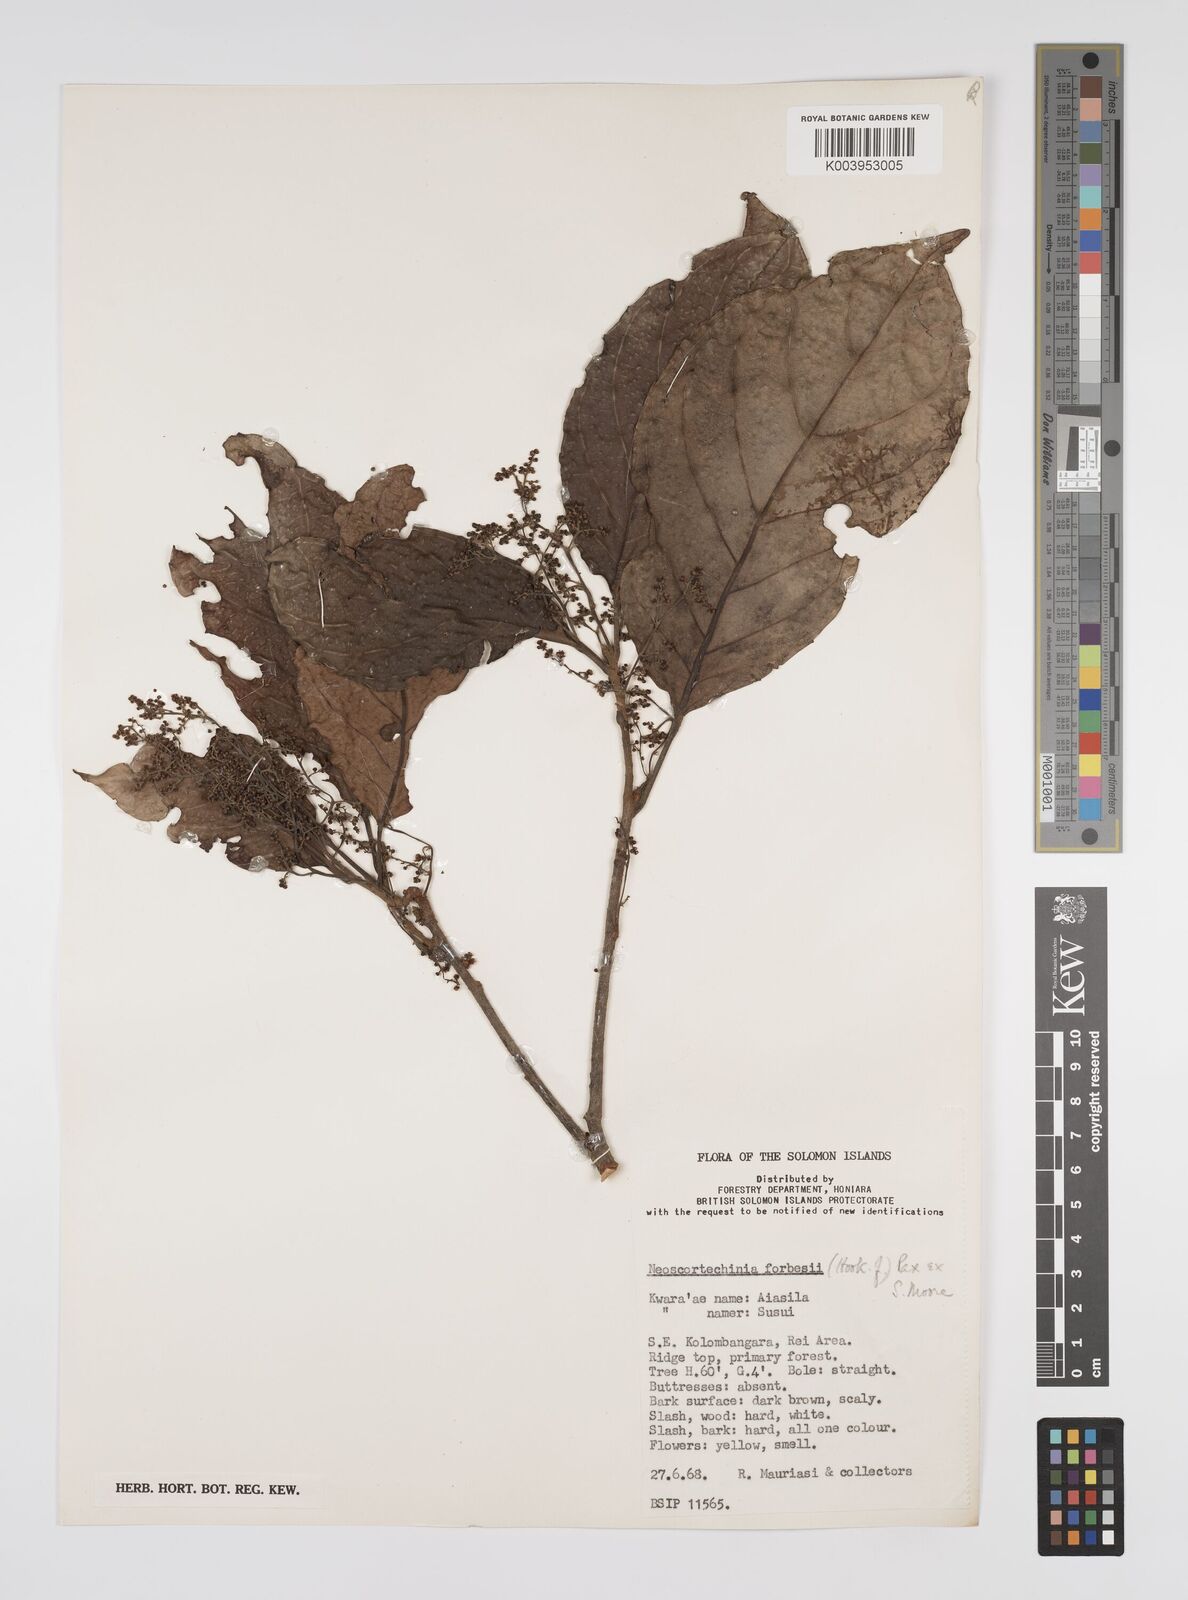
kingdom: Plantae
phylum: Tracheophyta
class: Magnoliopsida
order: Malpighiales
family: Euphorbiaceae
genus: Neoscortechinia
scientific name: Neoscortechinia forbesii
